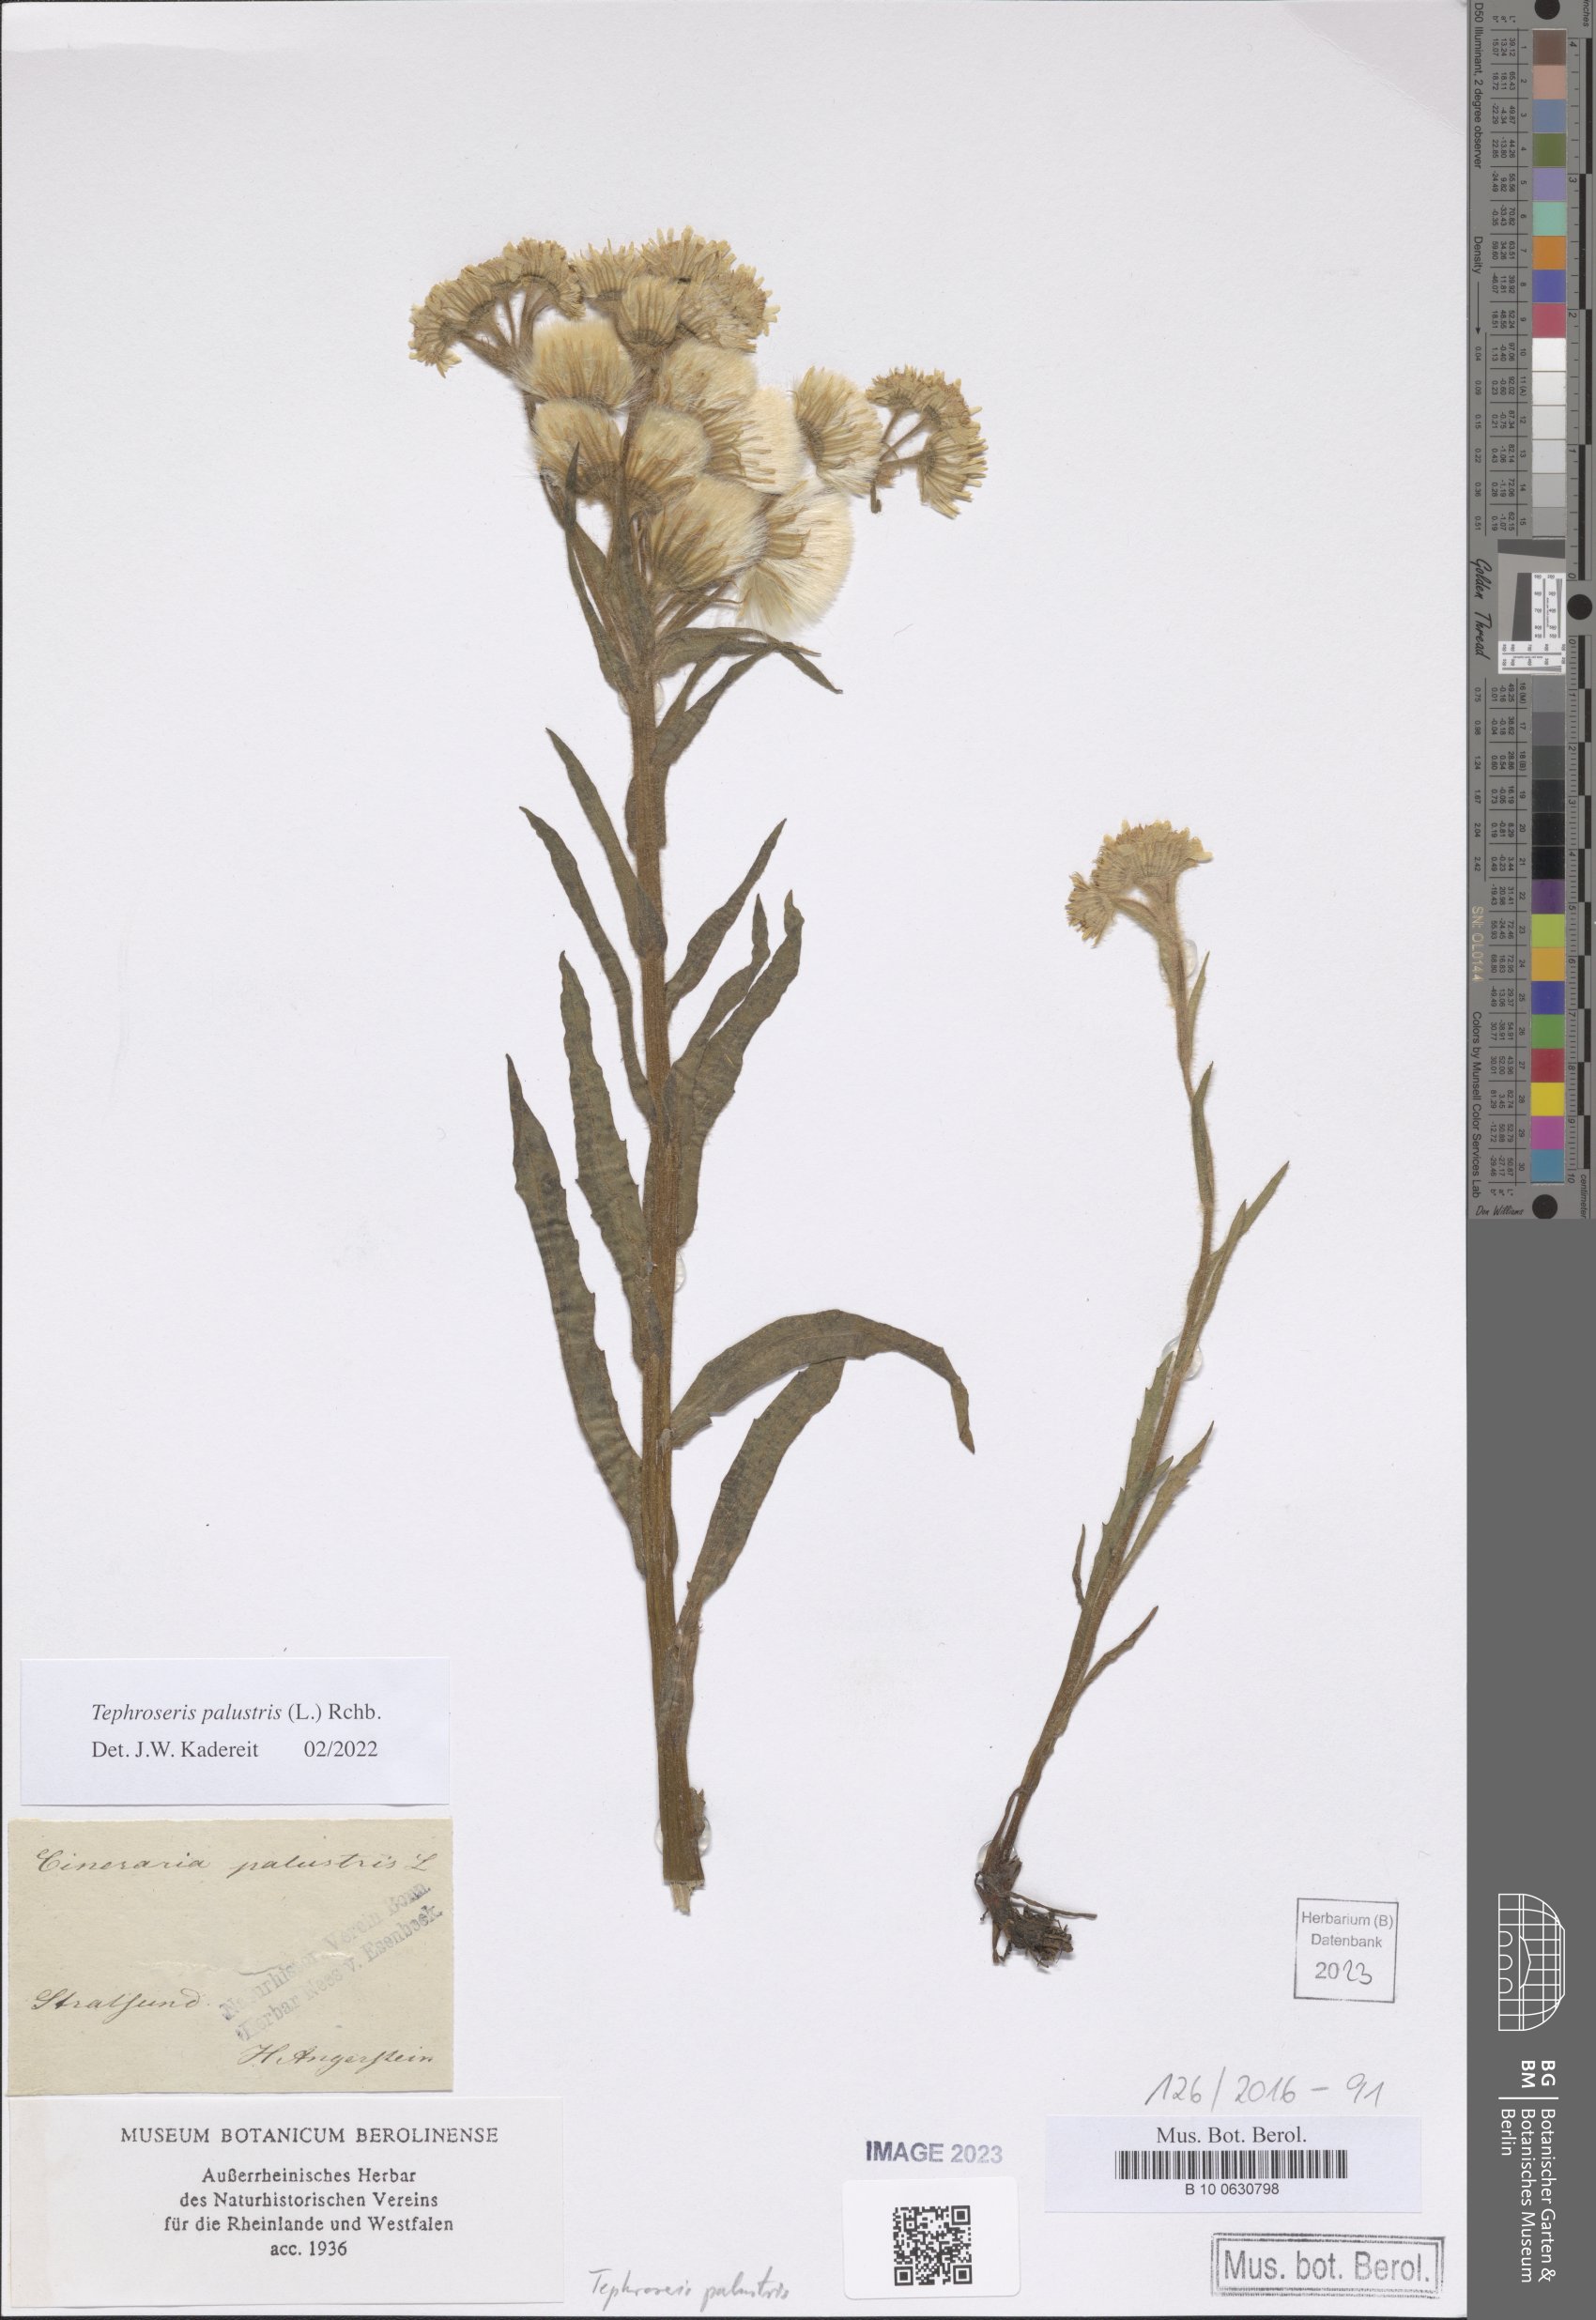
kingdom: Plantae
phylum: Tracheophyta
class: Magnoliopsida
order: Asterales
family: Asteraceae
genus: Tephroseris
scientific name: Tephroseris palustris
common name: Marsh fleawort
